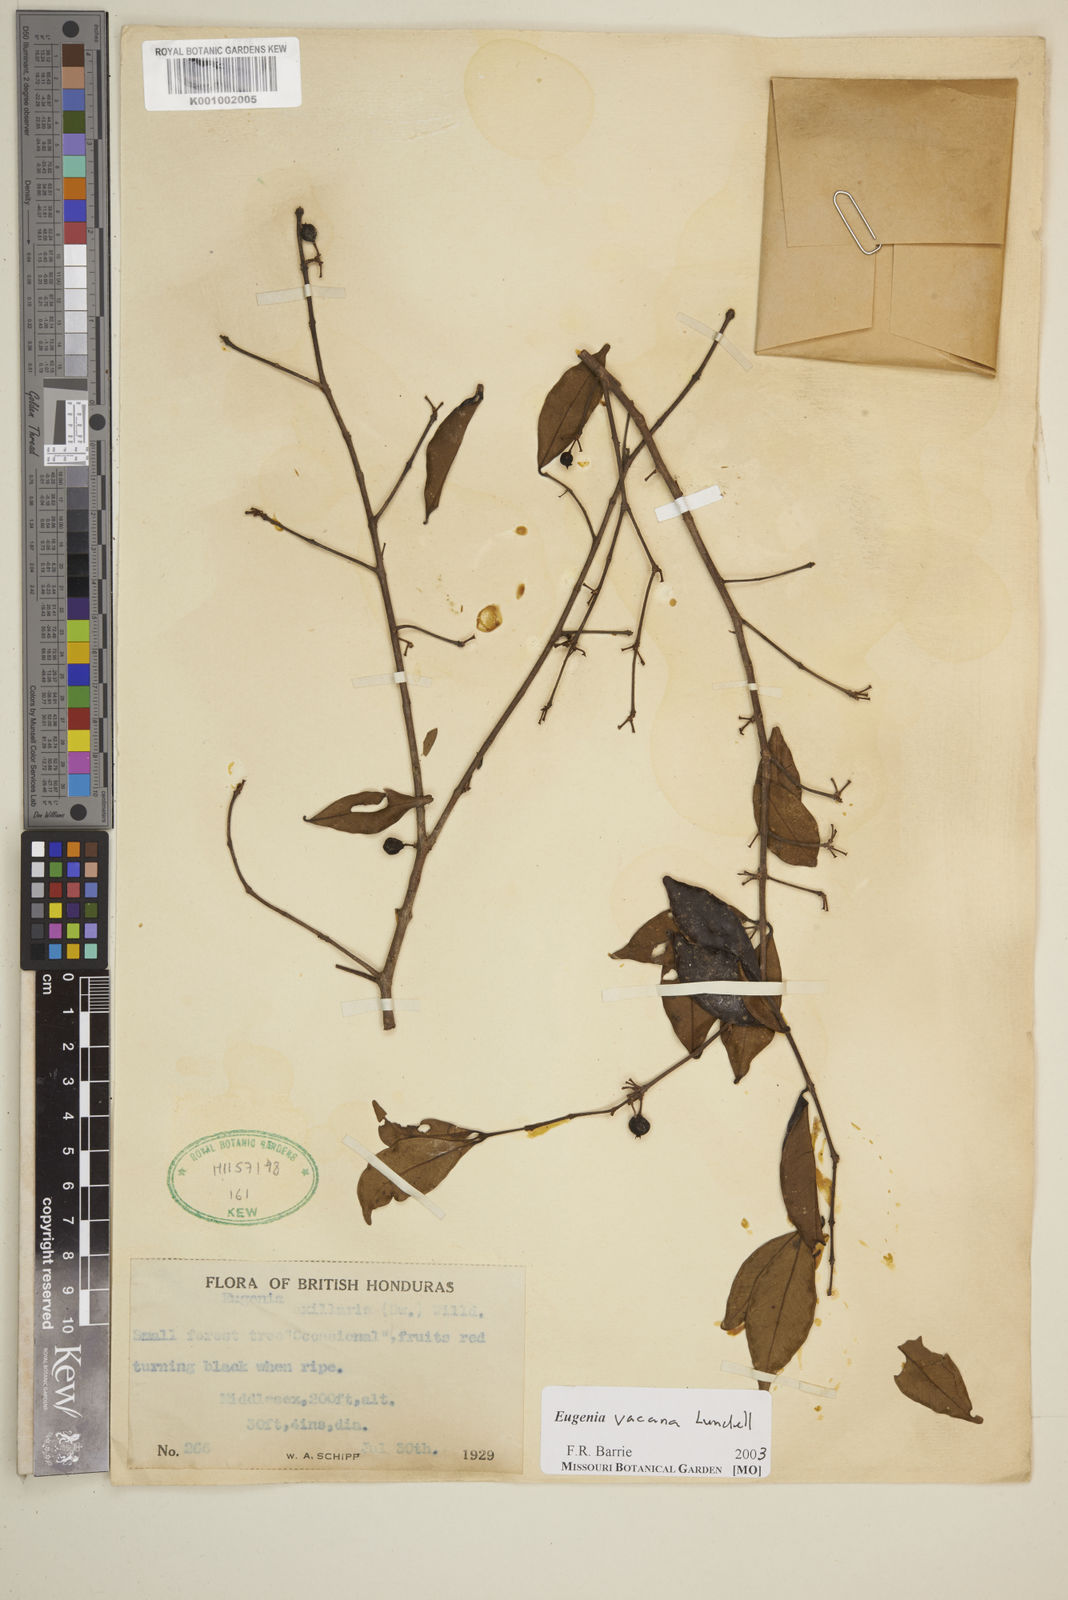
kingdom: Plantae
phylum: Tracheophyta
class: Magnoliopsida
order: Myrtales
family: Myrtaceae
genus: Eugenia
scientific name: Eugenia vacana
